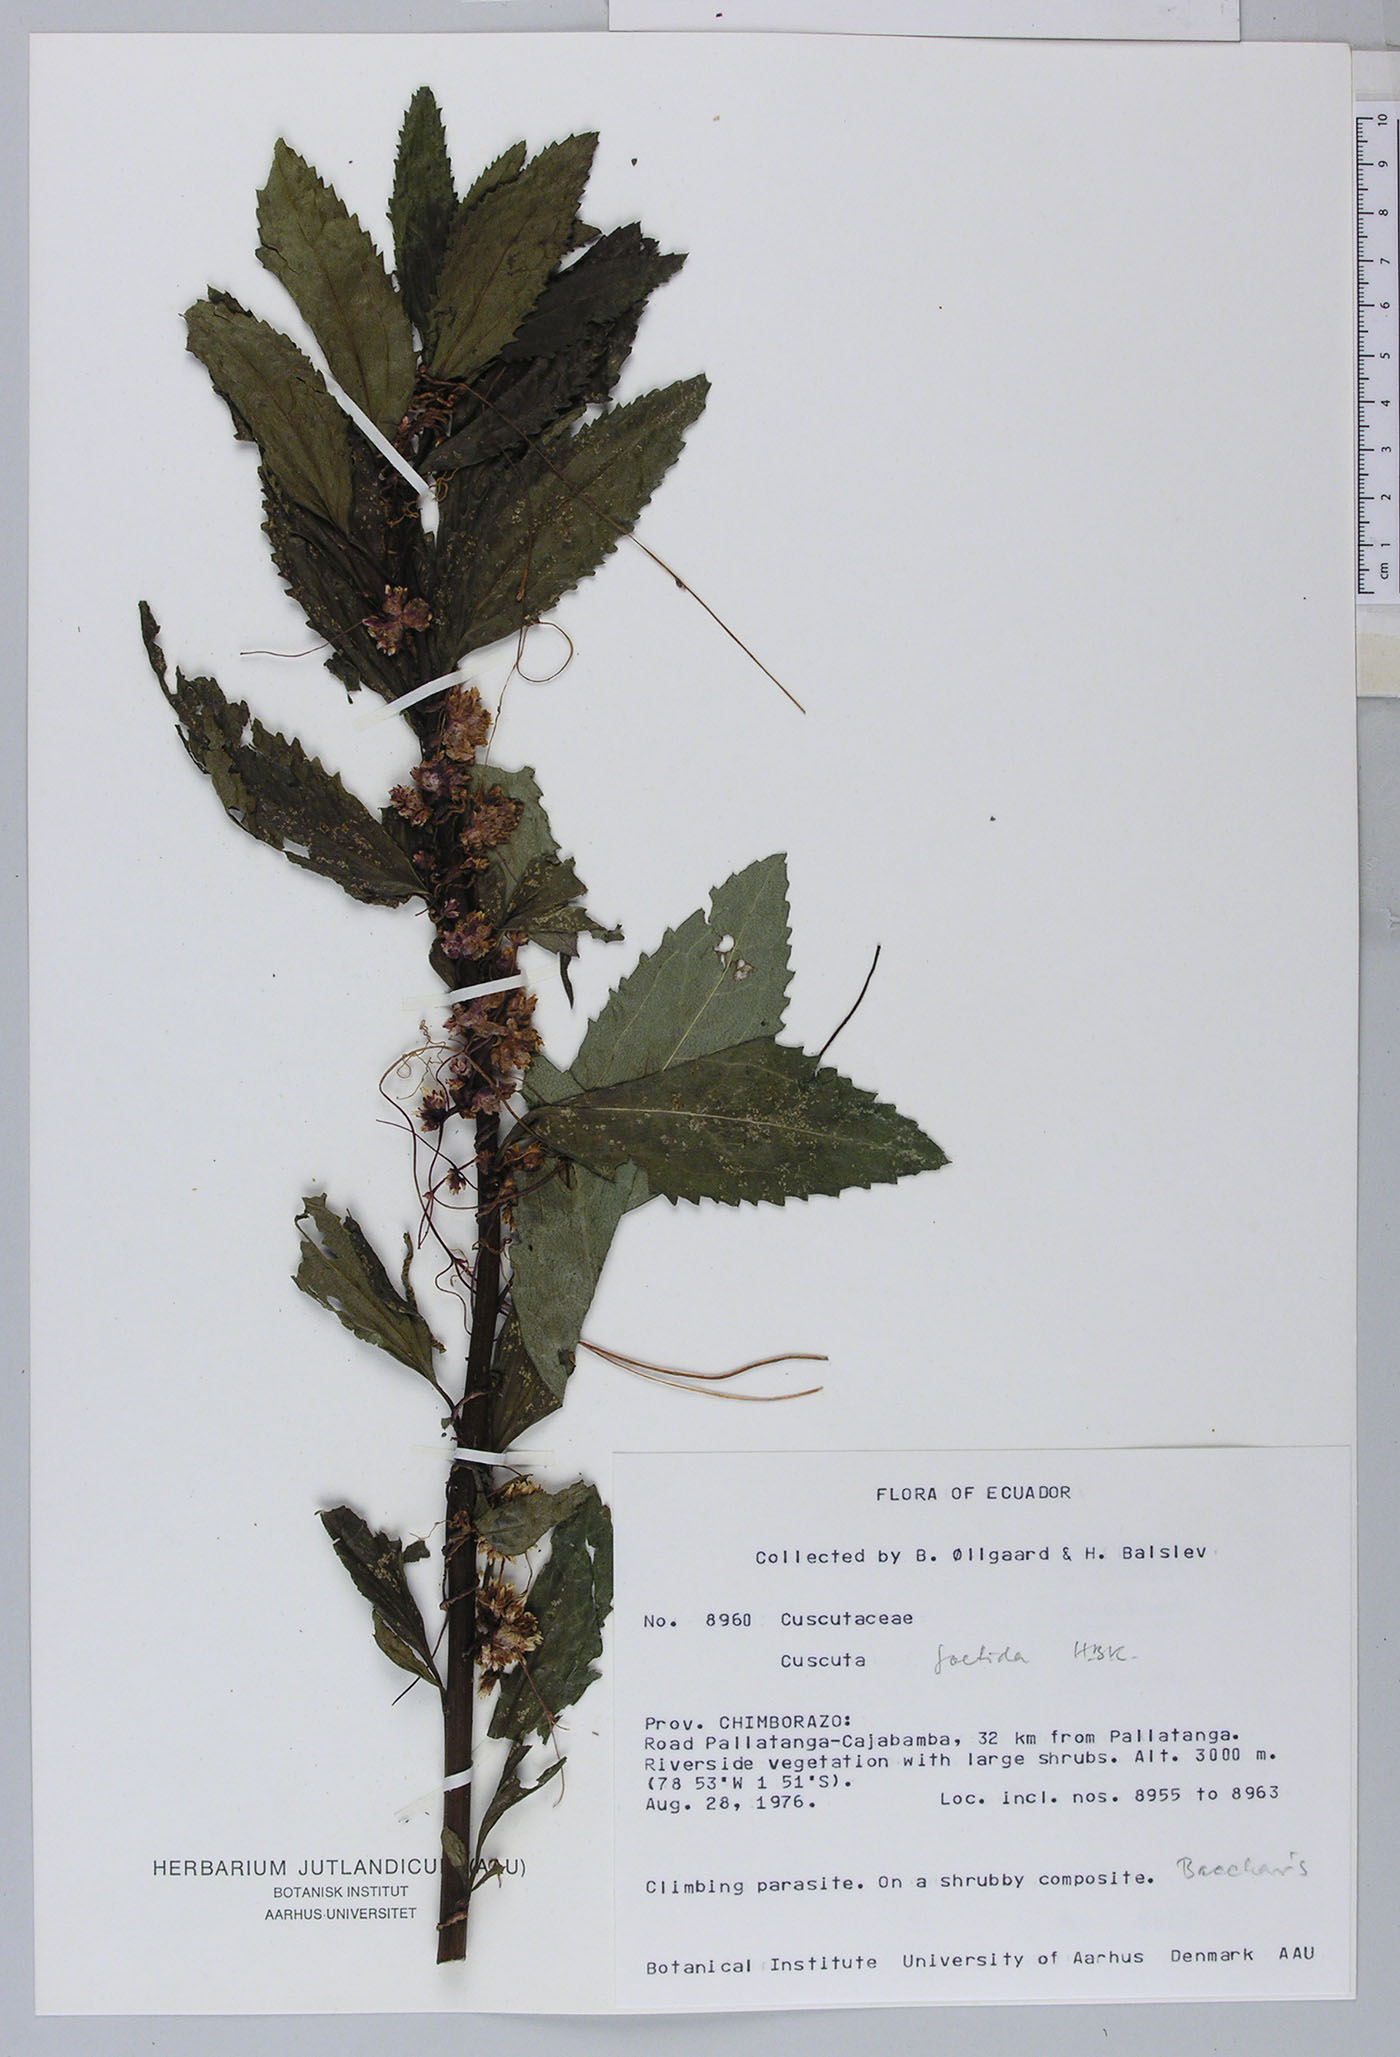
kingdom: Plantae
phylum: Tracheophyta
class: Magnoliopsida
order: Solanales
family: Convolvulaceae
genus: Cuscuta
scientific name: Cuscuta foetida
